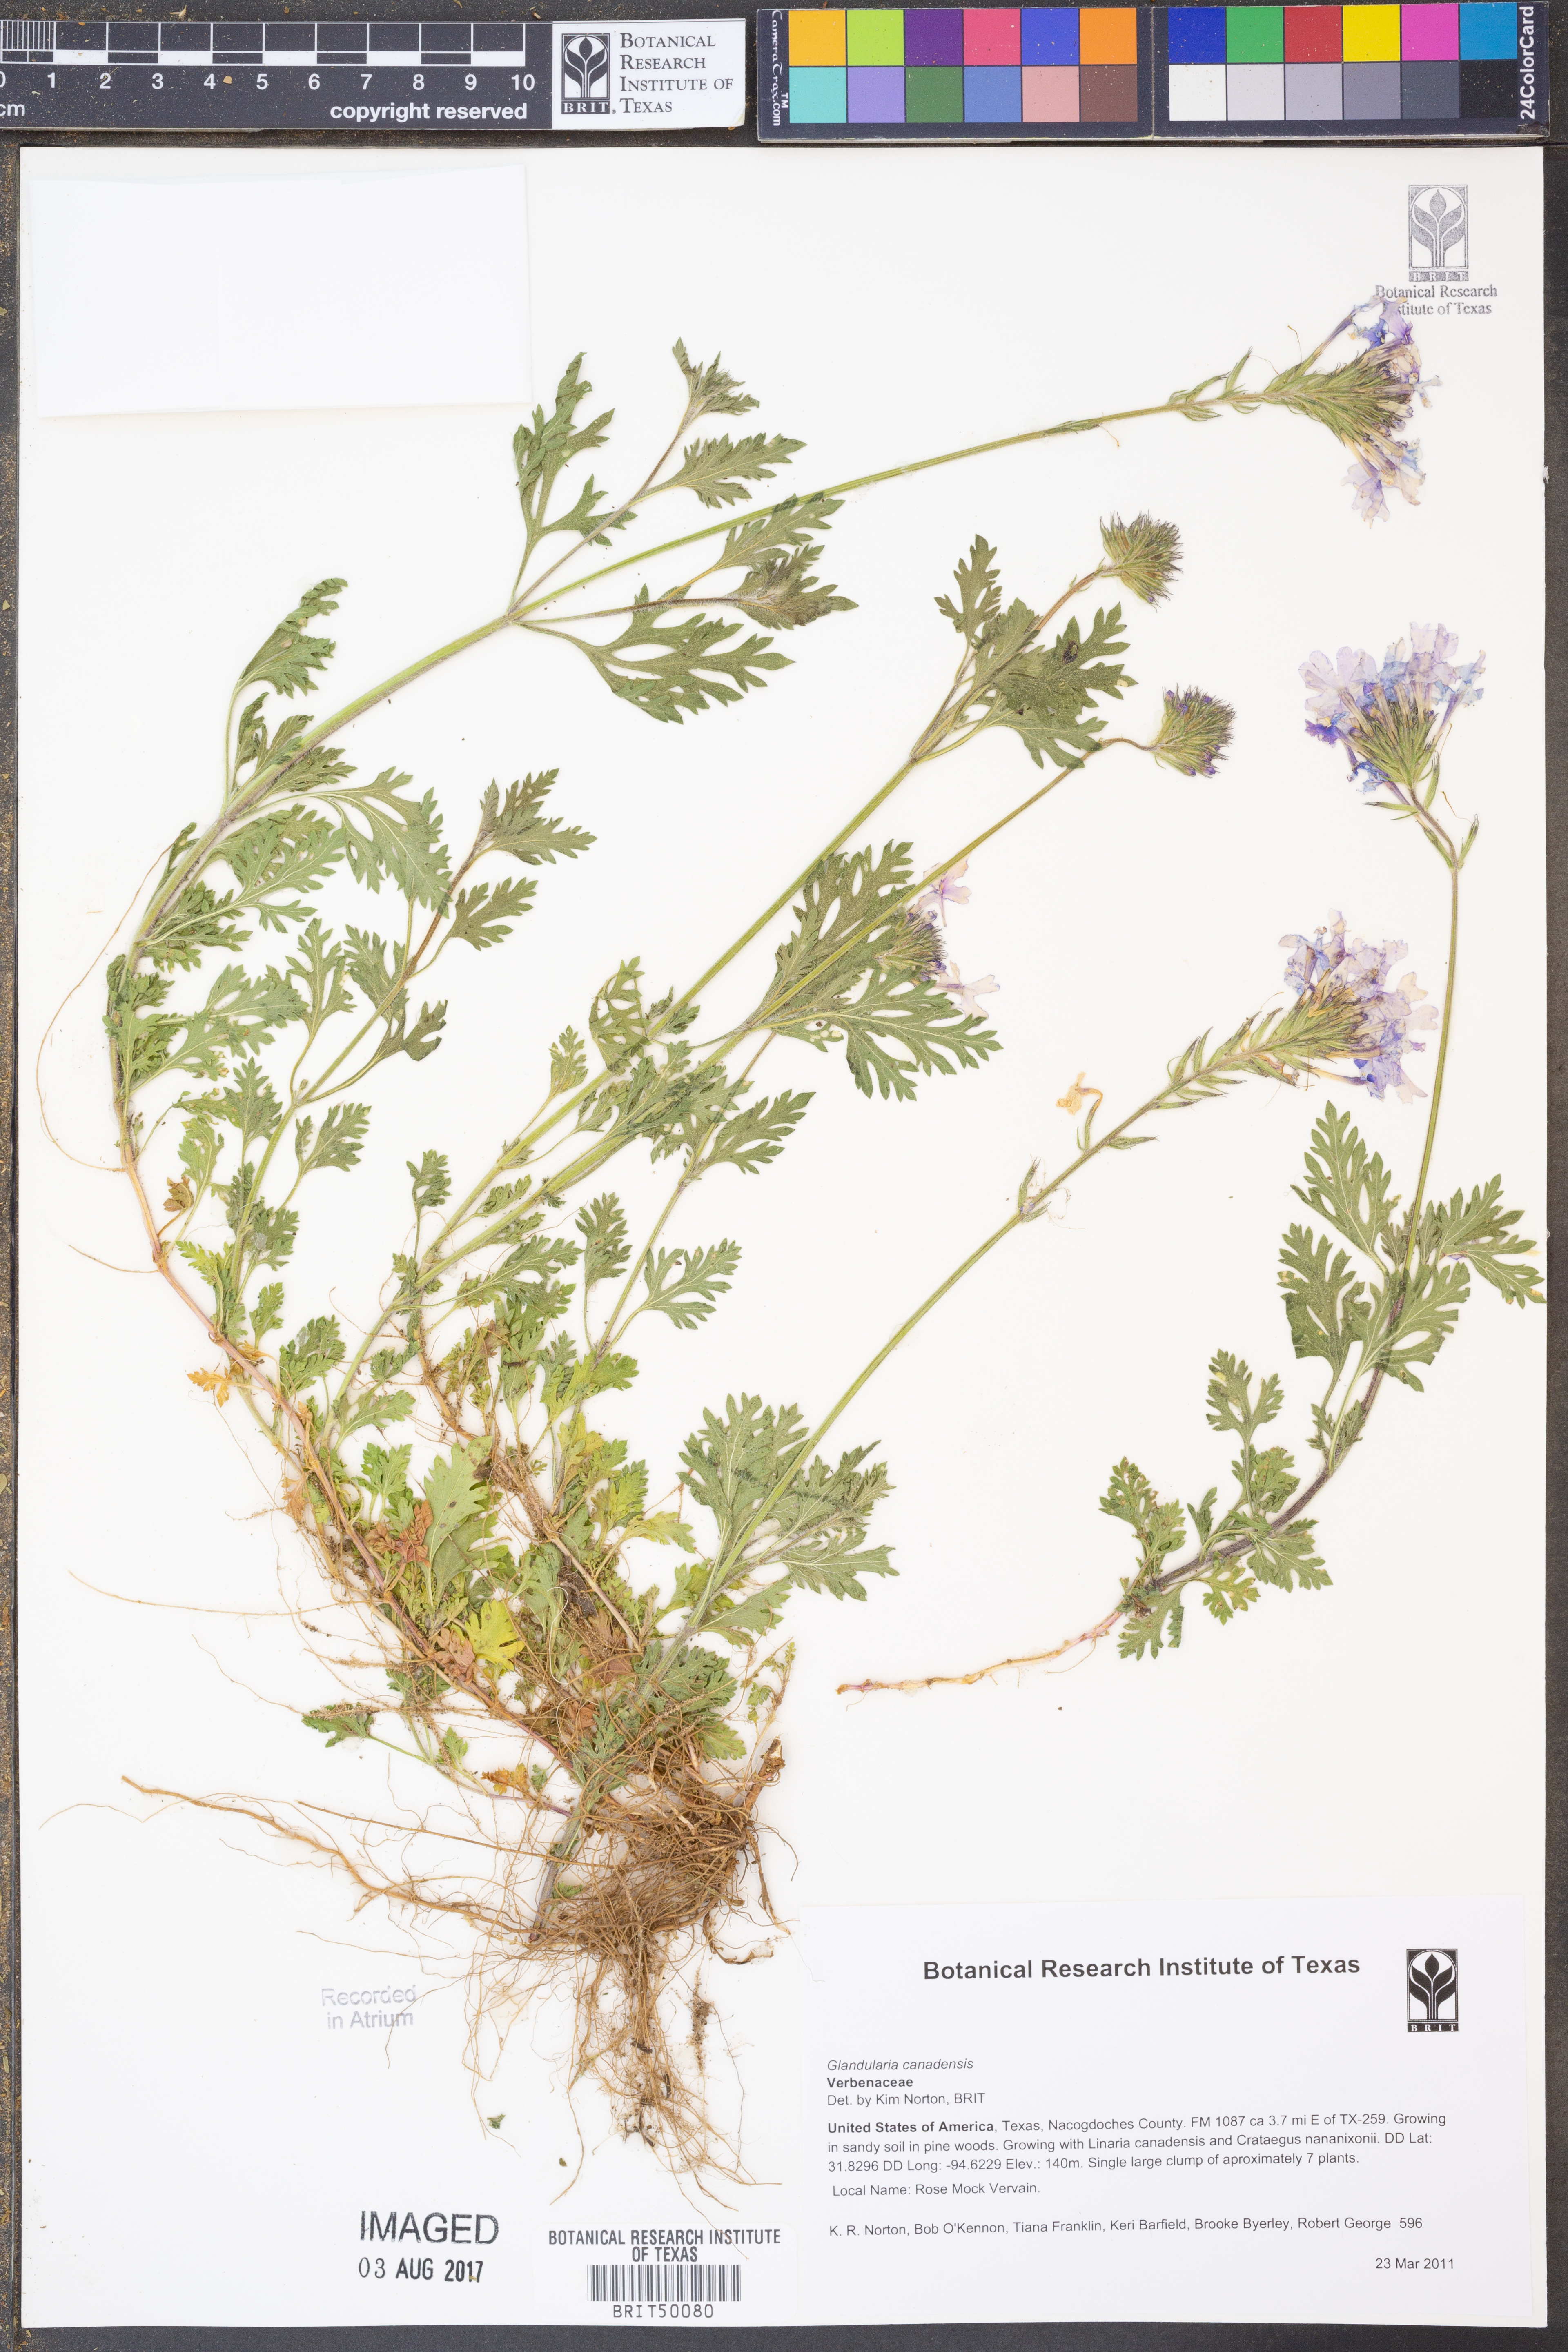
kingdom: Plantae
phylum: Tracheophyta
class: Magnoliopsida
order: Lamiales
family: Verbenaceae
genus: Verbena
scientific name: Verbena canadensis
